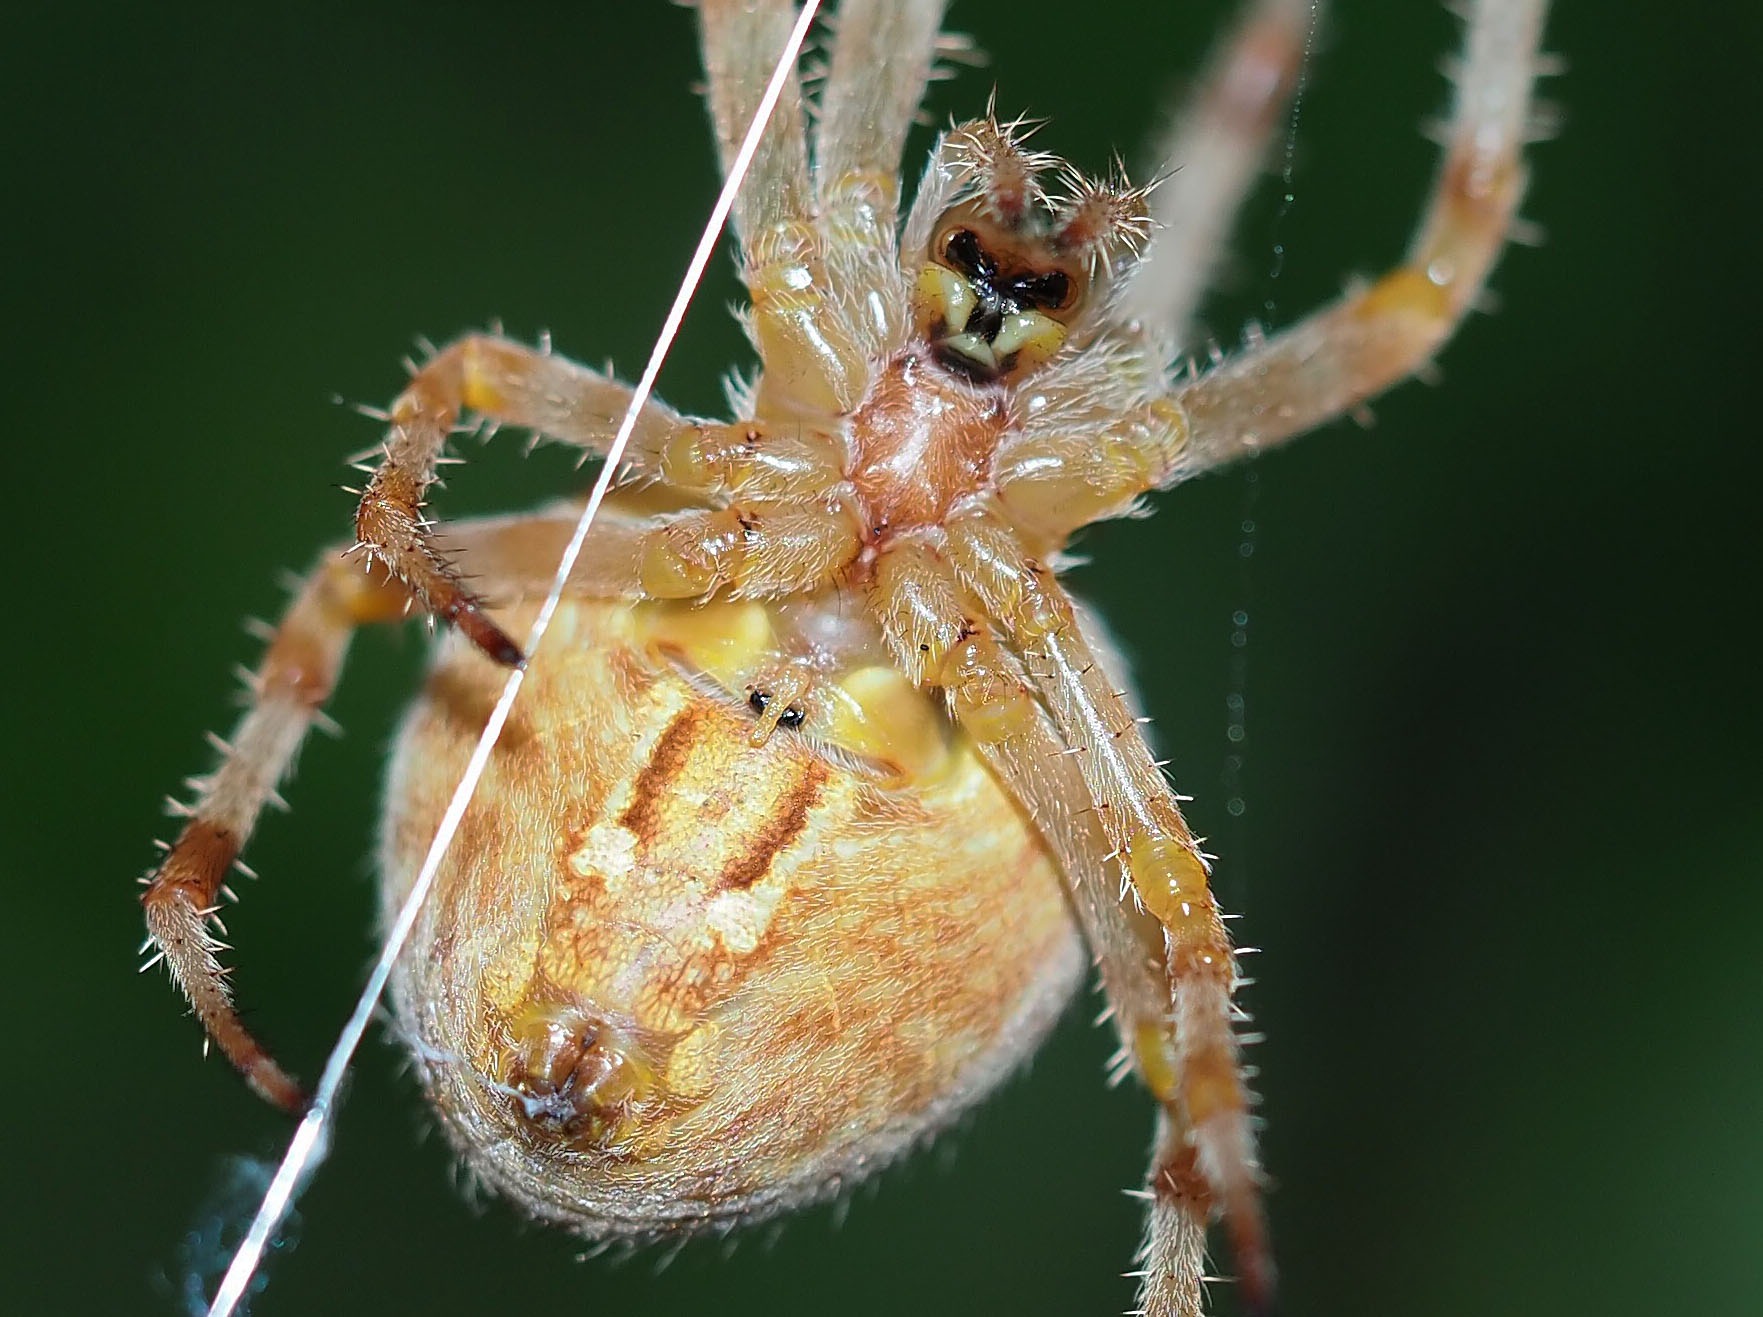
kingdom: Animalia
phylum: Arthropoda
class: Arachnida
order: Araneae
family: Araneidae
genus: Araneus
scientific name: Araneus marmoreus
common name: Marmoreret hjulspinder
